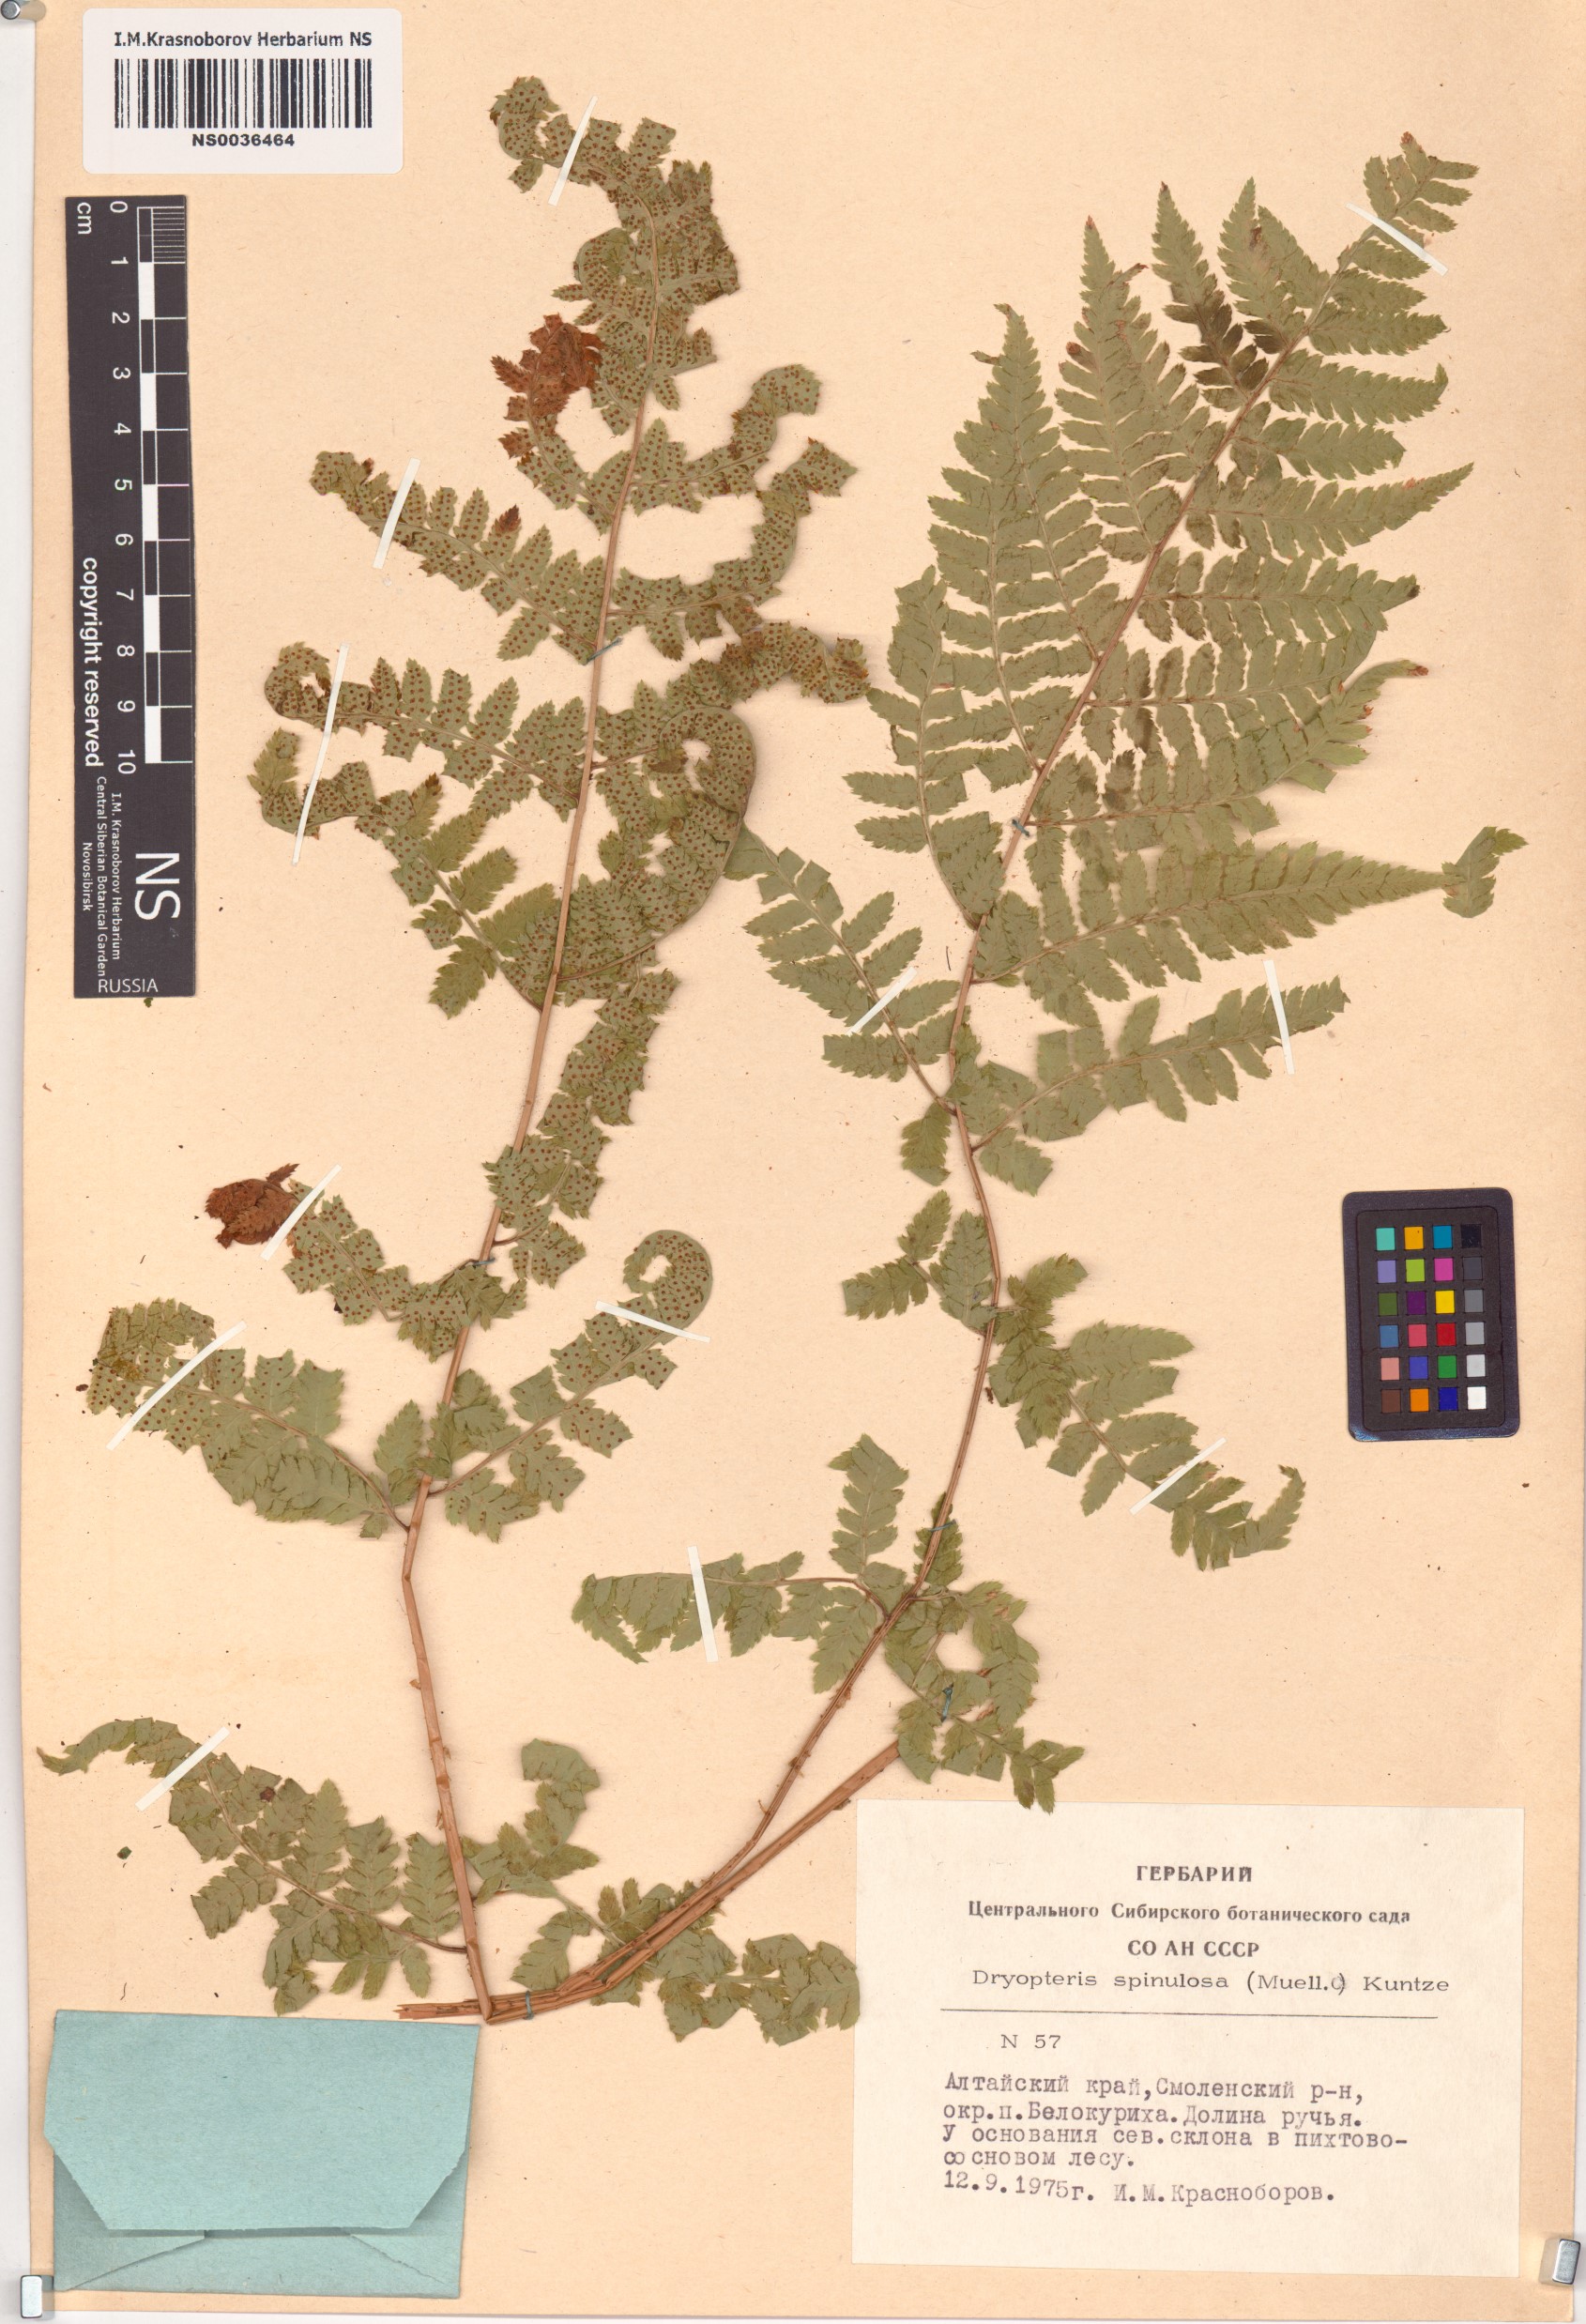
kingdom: Plantae
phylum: Tracheophyta
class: Polypodiopsida
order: Polypodiales
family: Dryopteridaceae
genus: Dryopteris
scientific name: Dryopteris carthusiana
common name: Narrow buckler-fern
